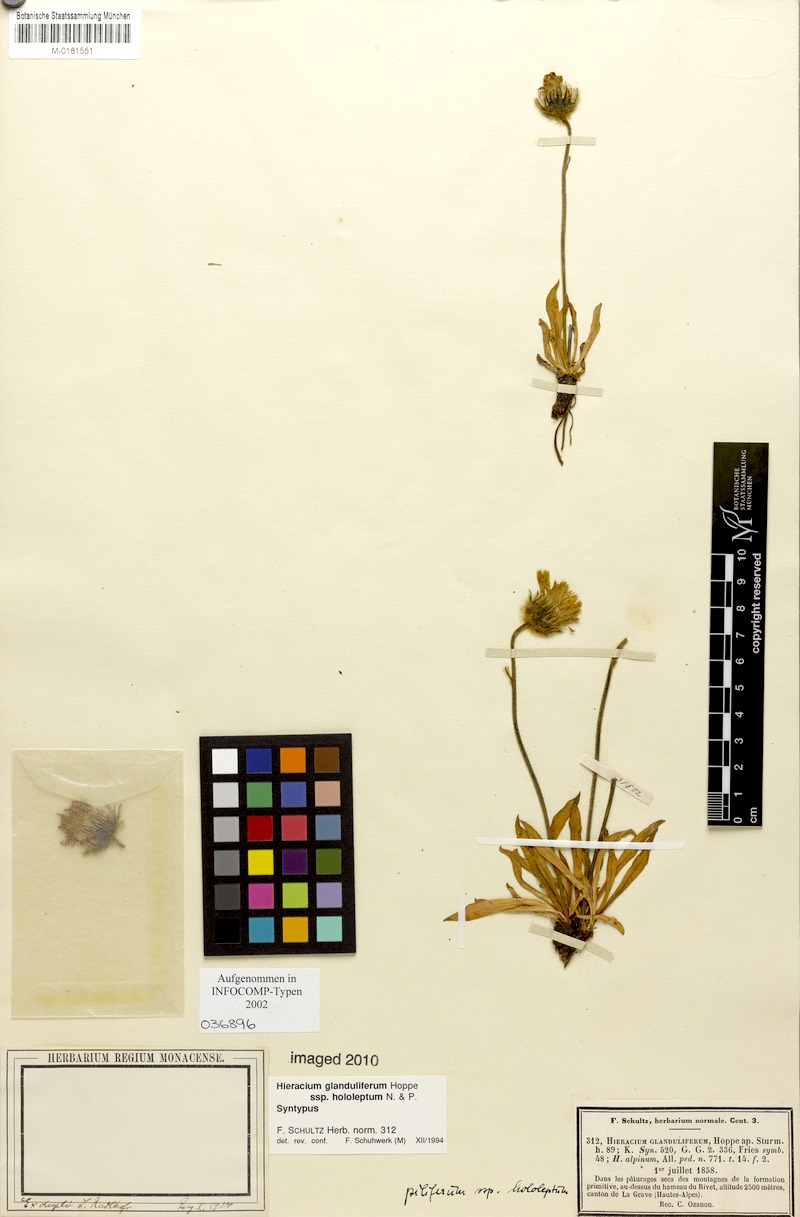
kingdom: Plantae
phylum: Tracheophyta
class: Magnoliopsida
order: Asterales
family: Asteraceae
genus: Hieracium
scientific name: Hieracium piliferum
